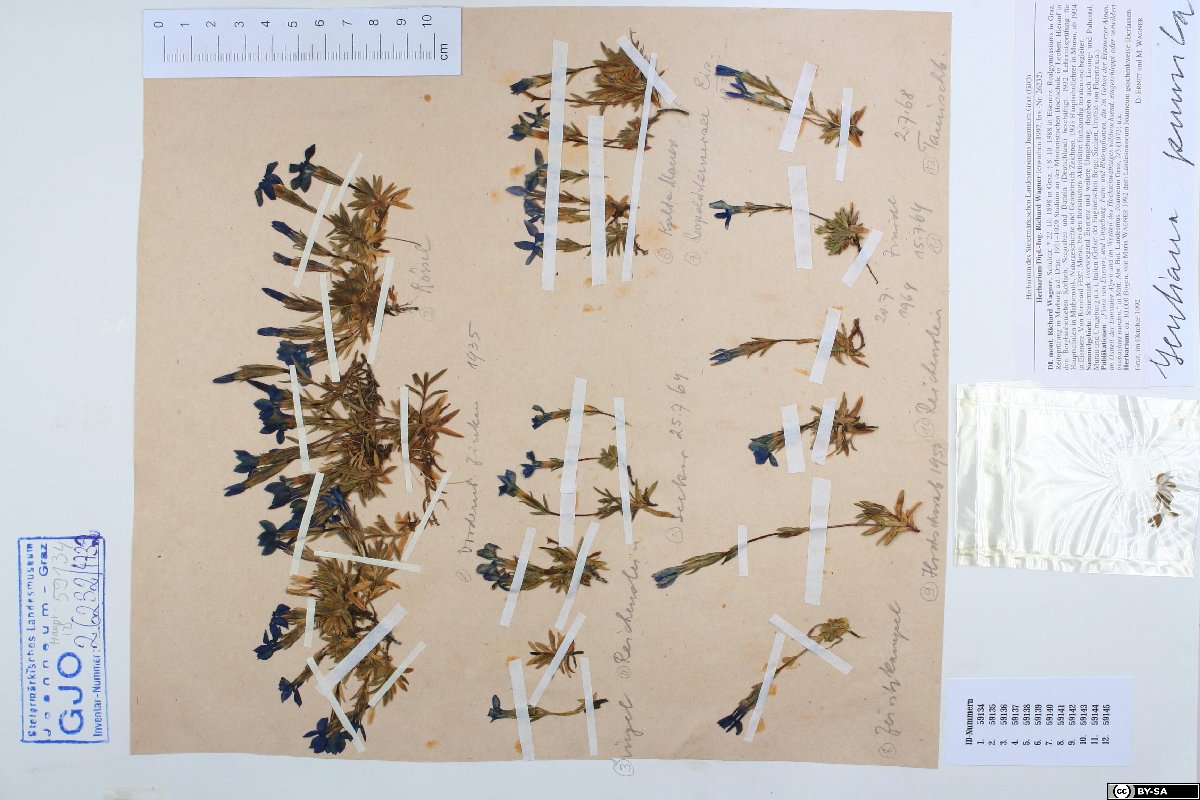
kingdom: Plantae
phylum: Tracheophyta
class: Magnoliopsida
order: Gentianales
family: Gentianaceae
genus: Gentiana
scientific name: Gentiana pumila
